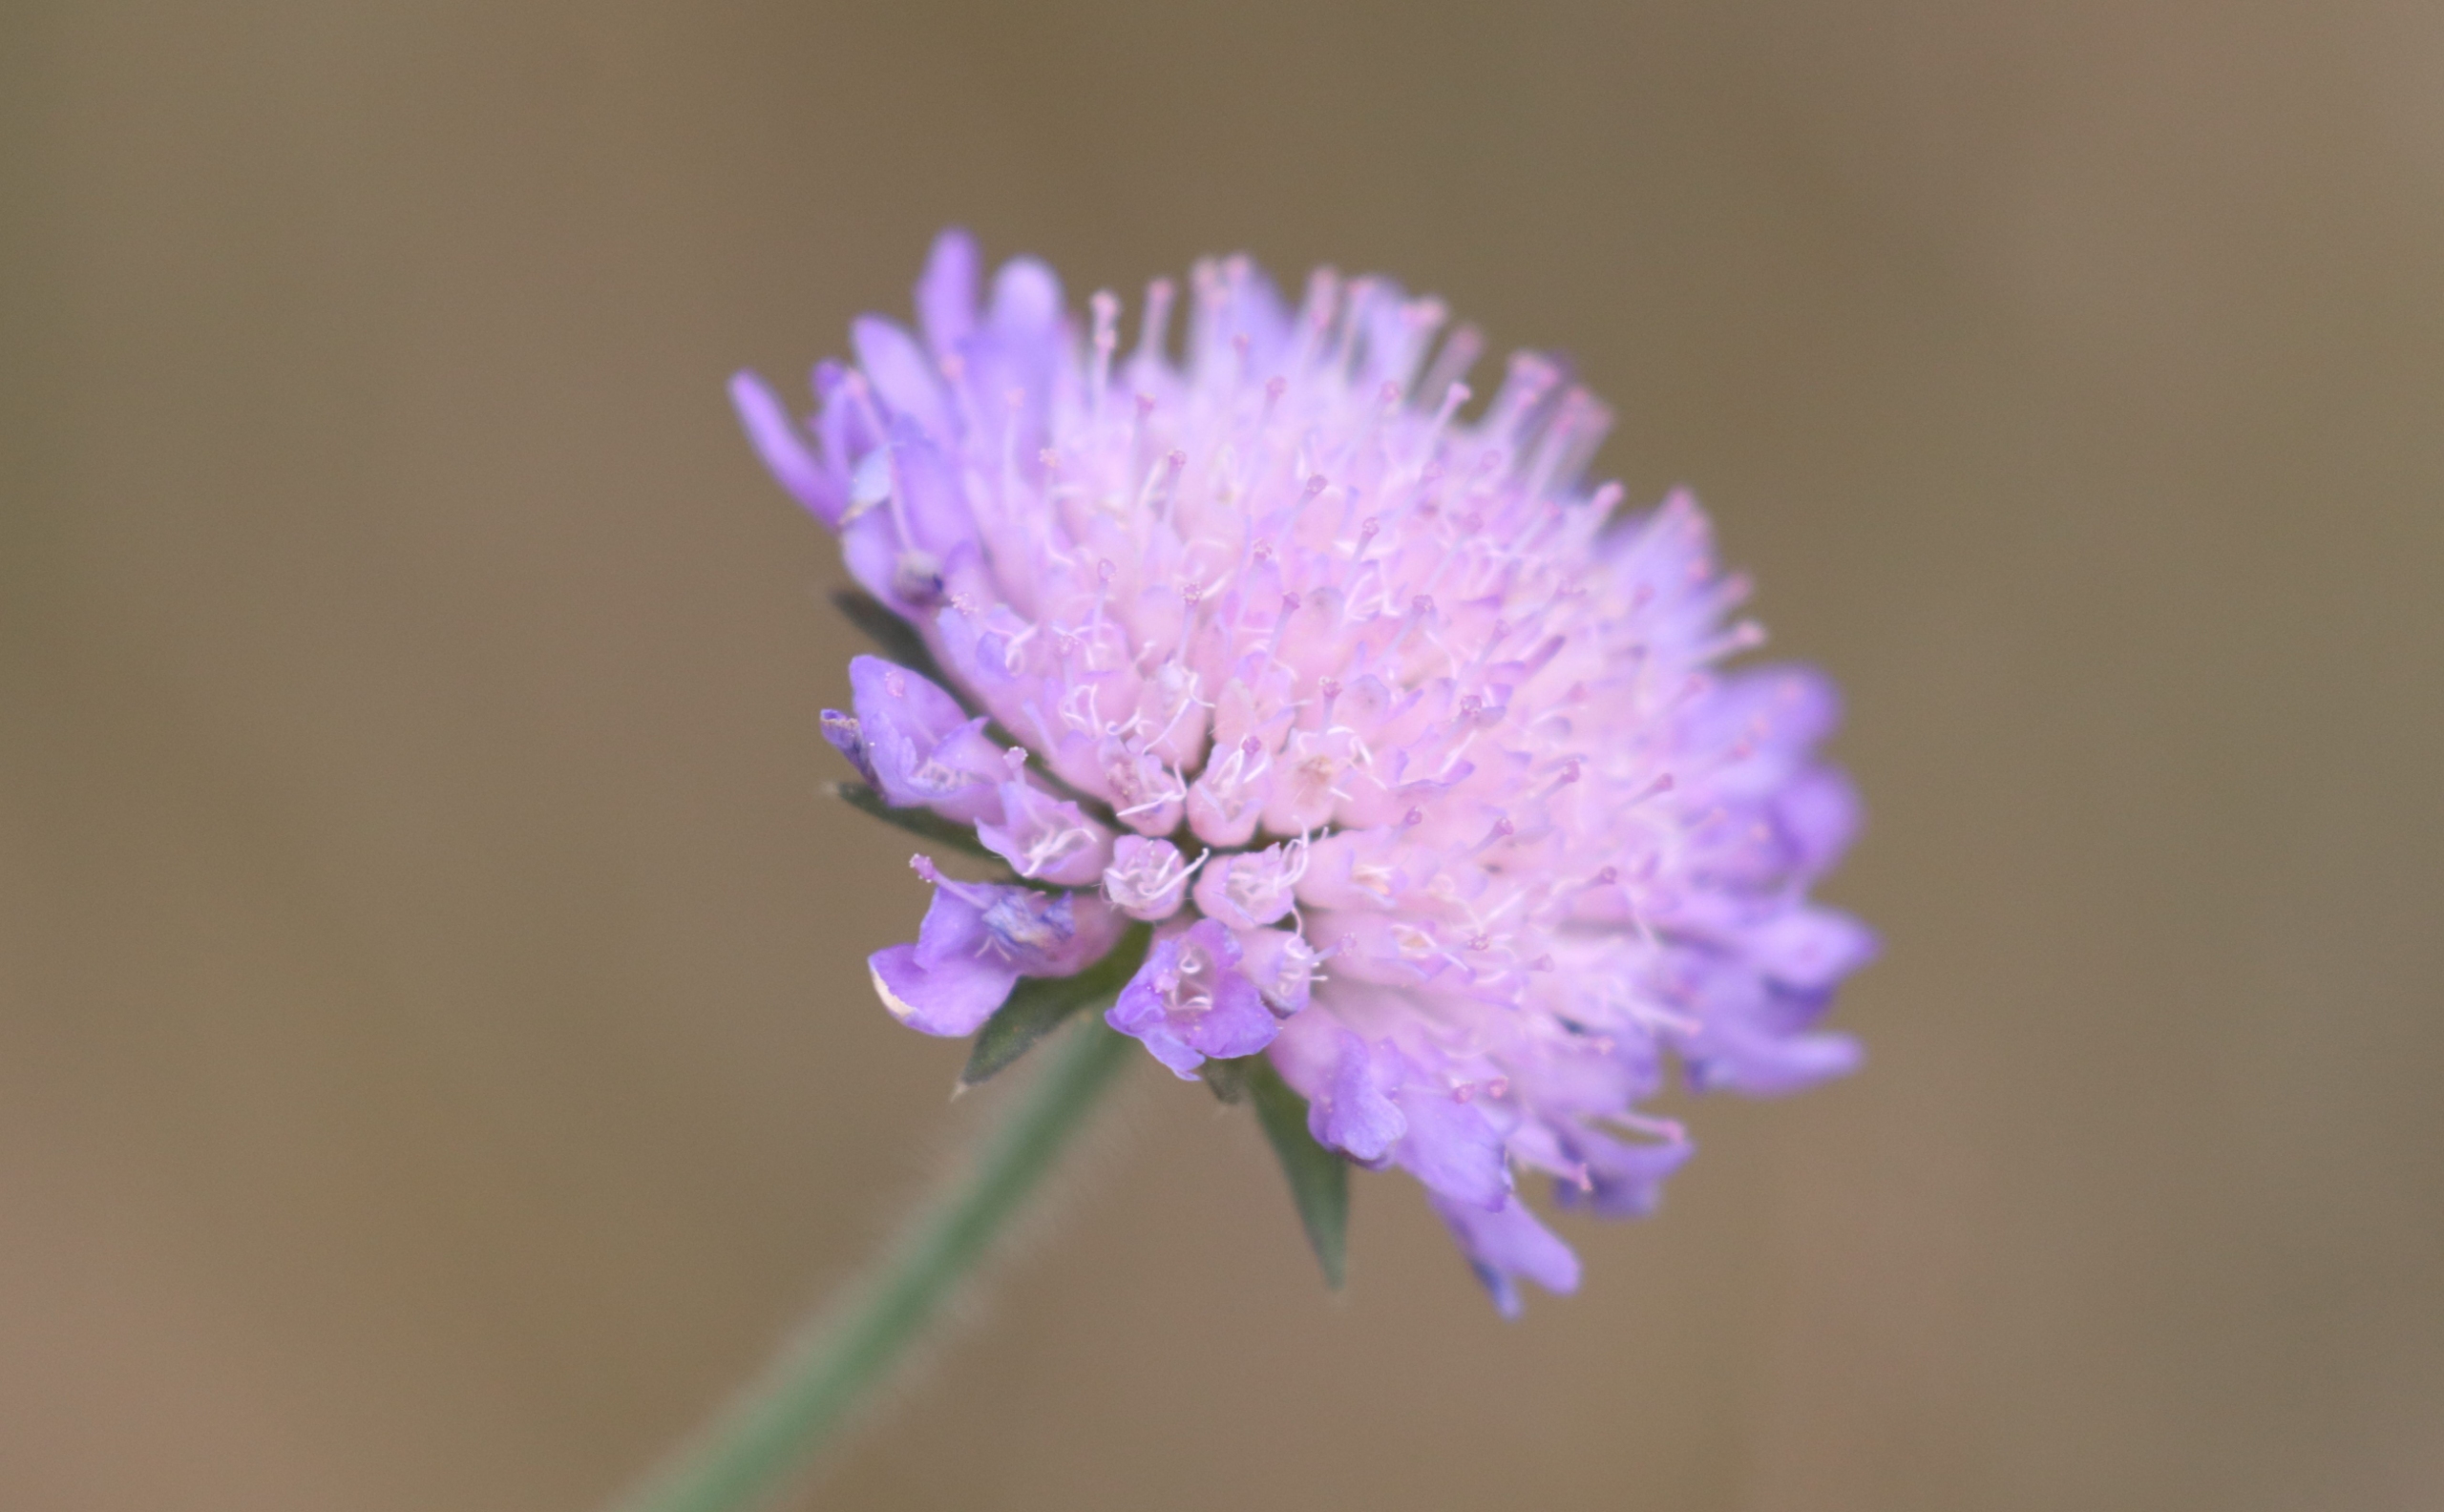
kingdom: Plantae
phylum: Tracheophyta
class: Magnoliopsida
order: Dipsacales
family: Caprifoliaceae
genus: Knautia
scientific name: Knautia arvensis
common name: Blåhat
